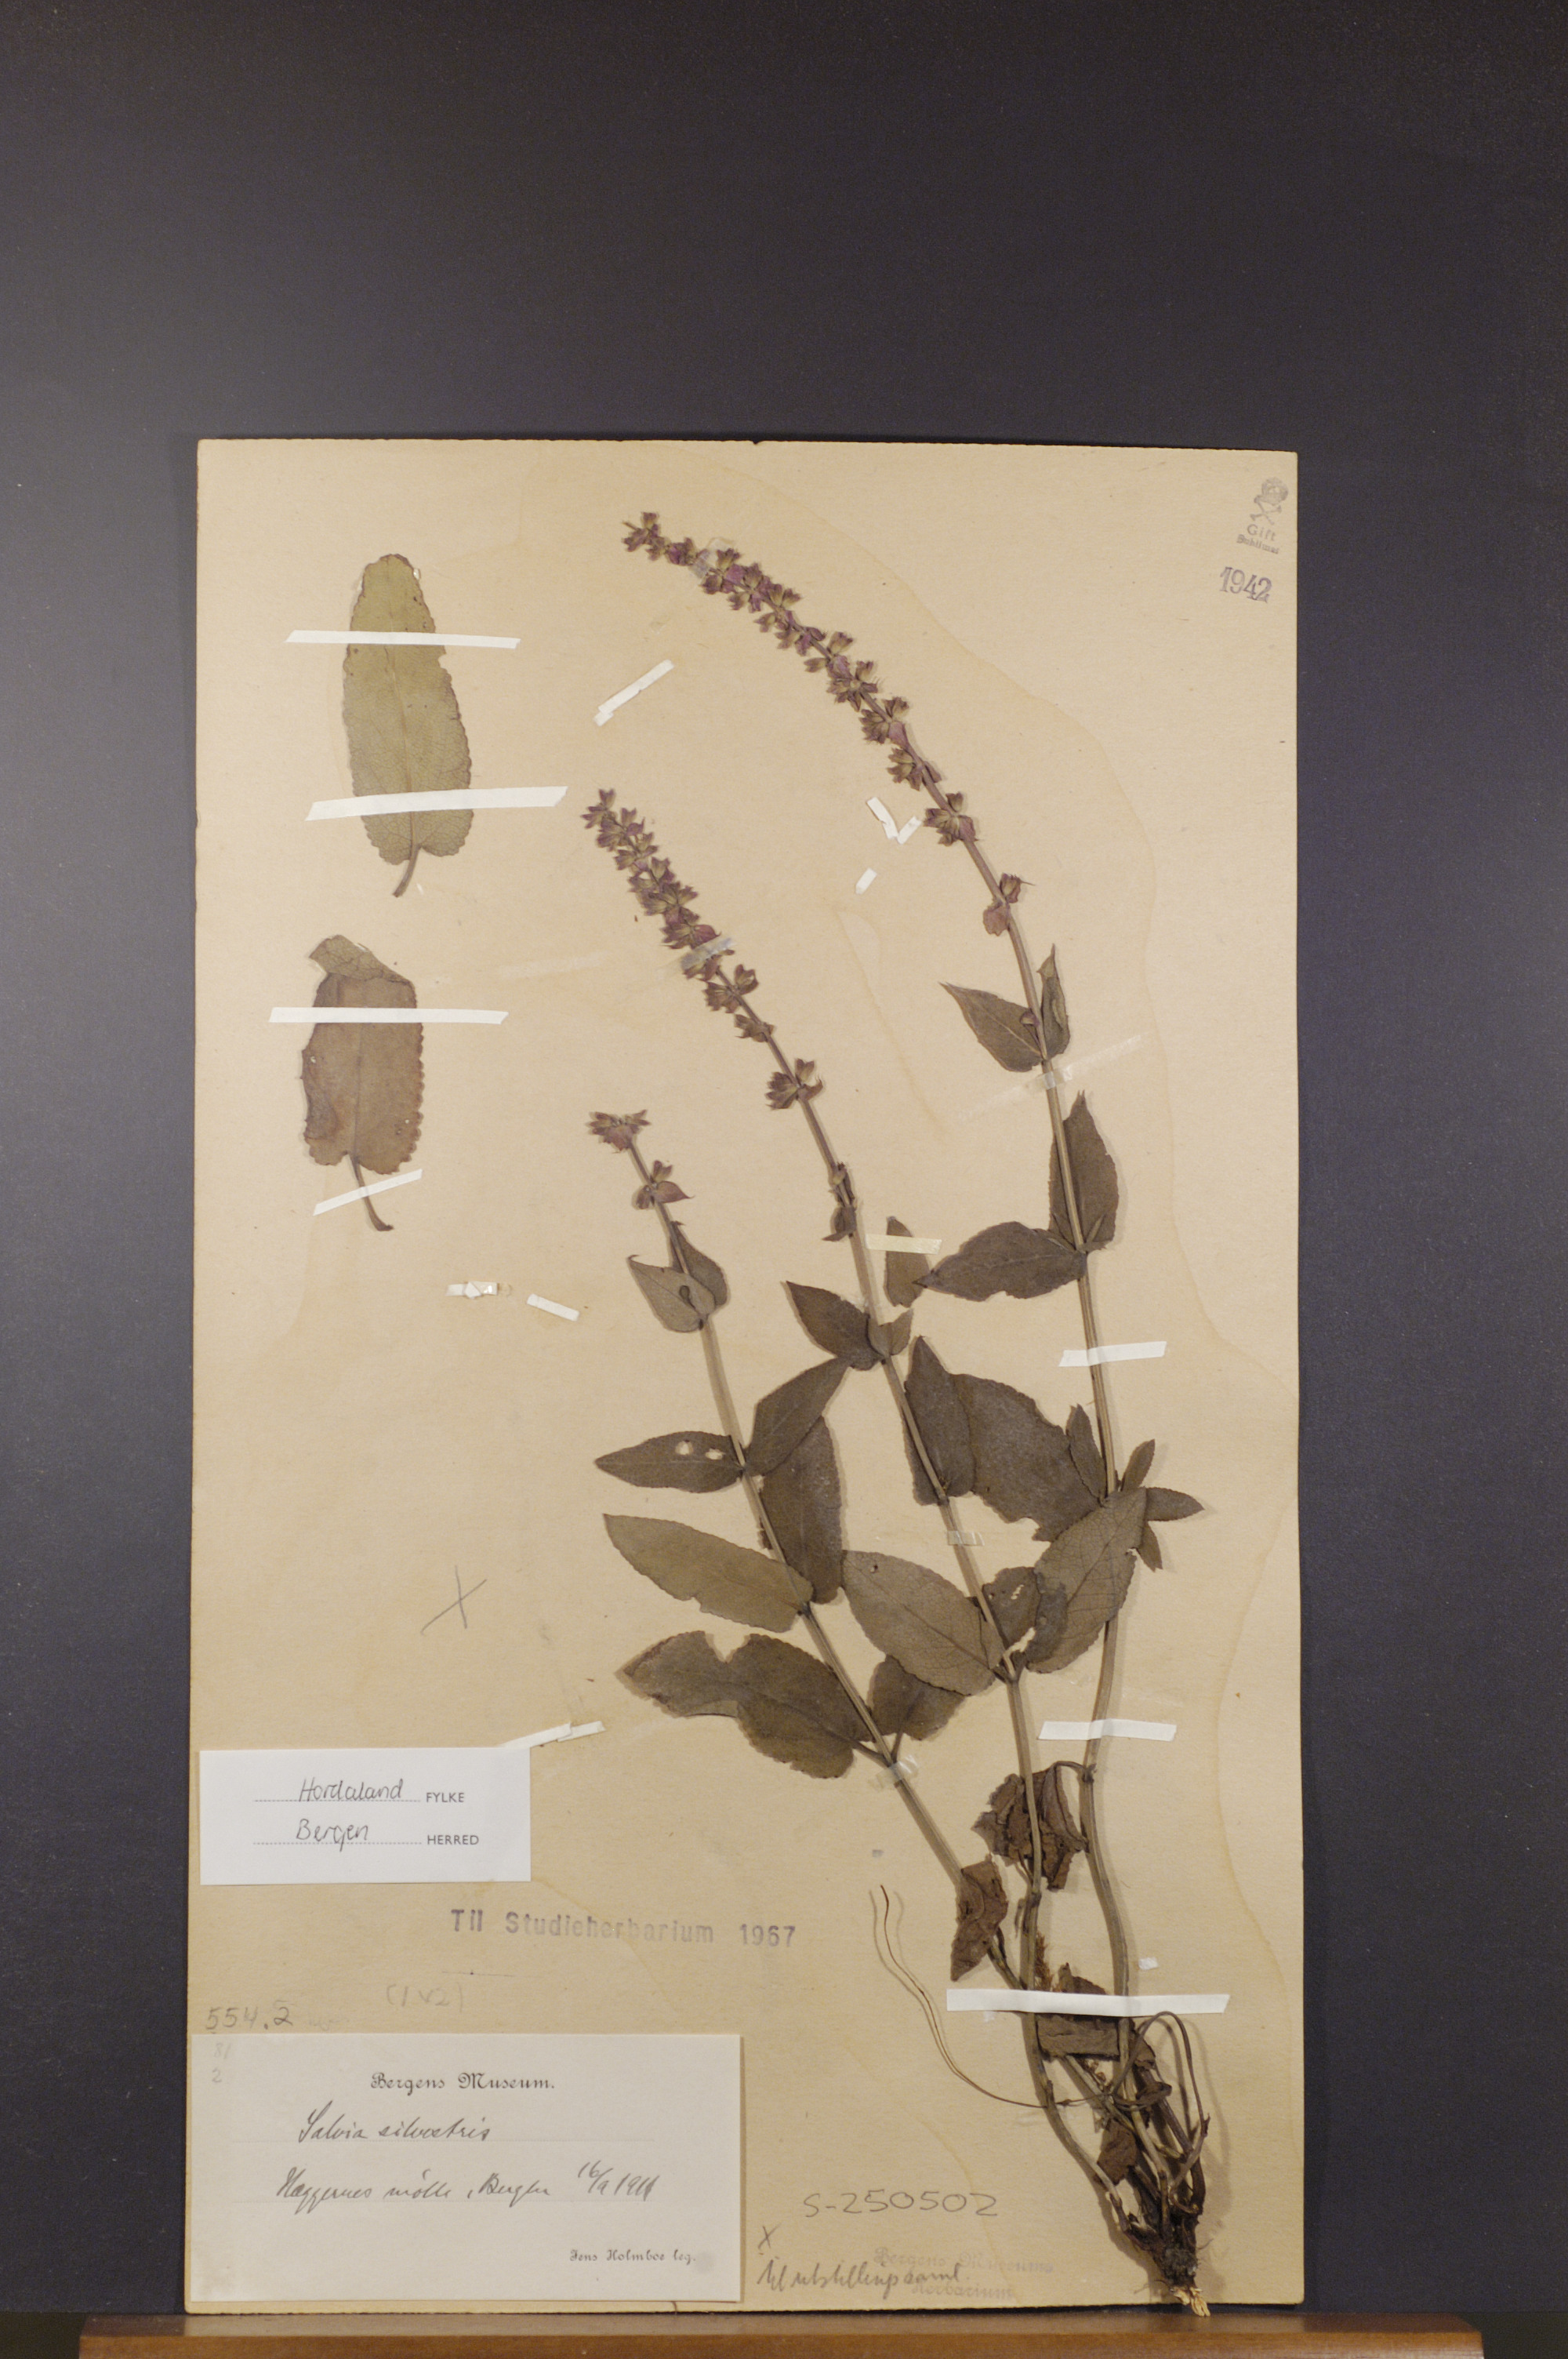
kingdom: Plantae
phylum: Tracheophyta
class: Magnoliopsida
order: Lamiales
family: Lamiaceae
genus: Salvia
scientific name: Salvia nemorosa
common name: Balkan clary
